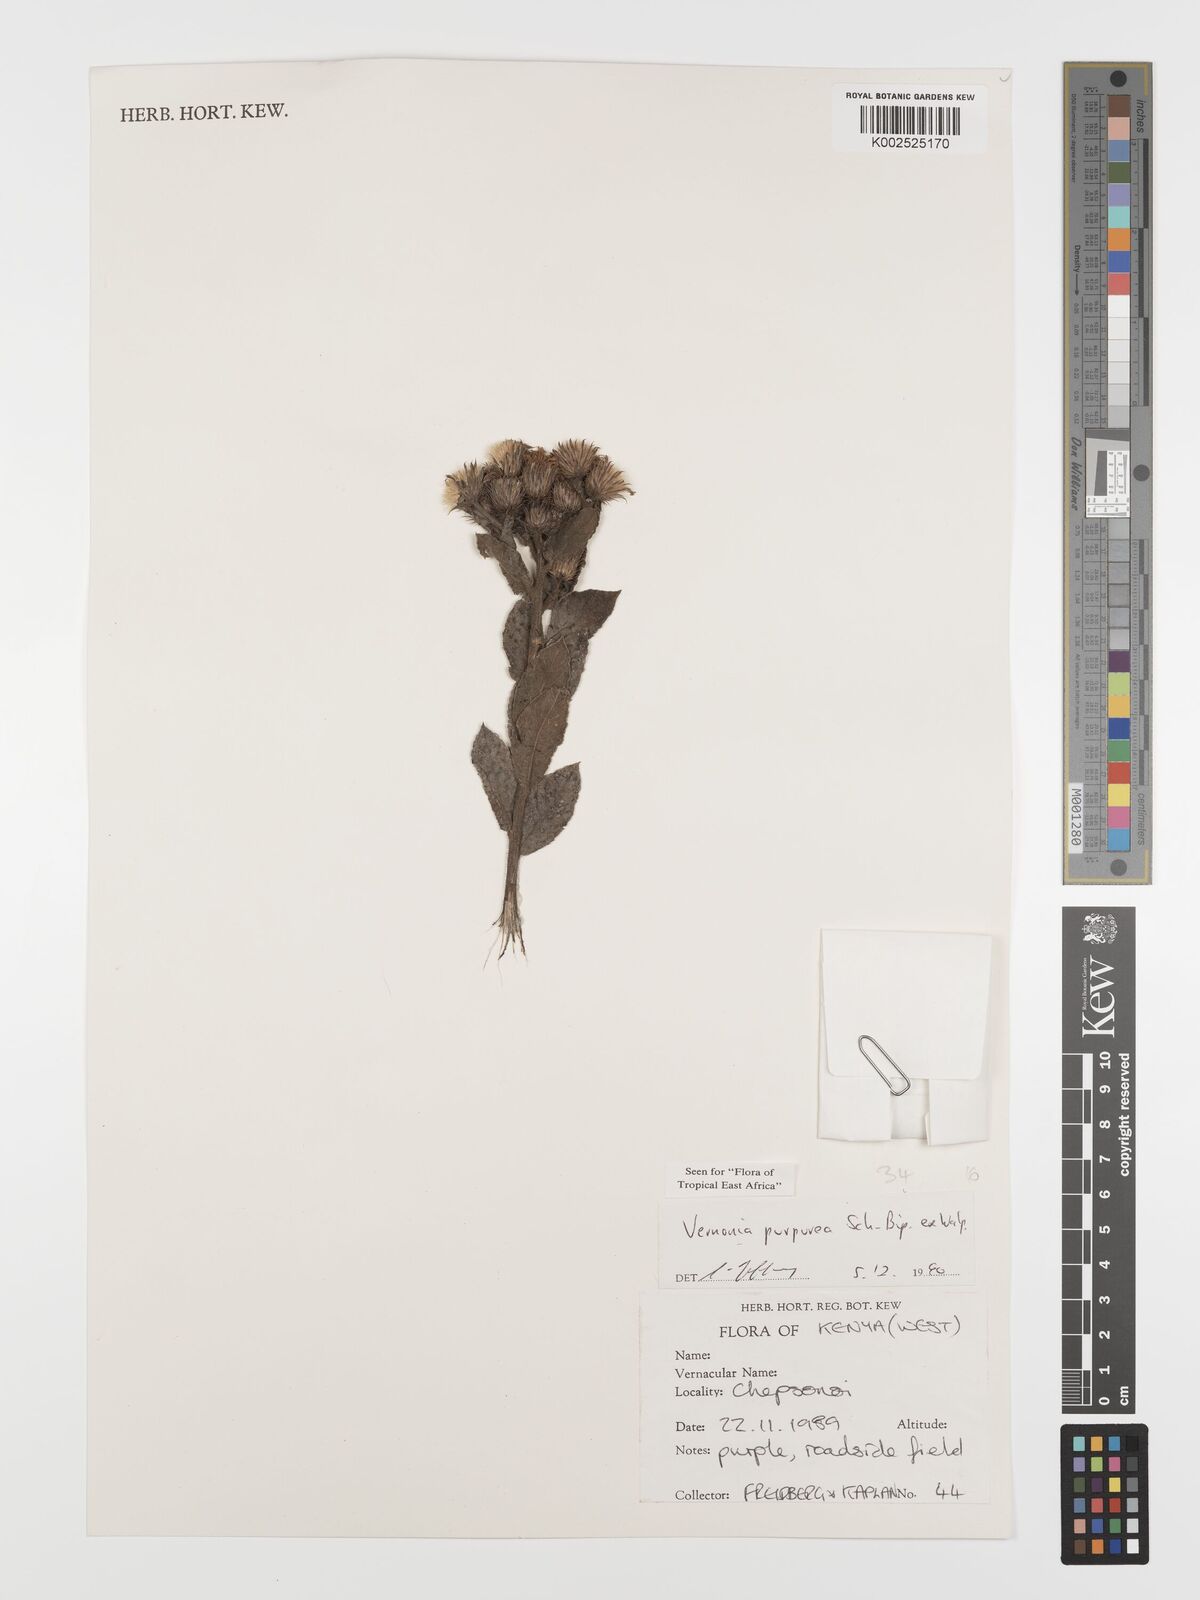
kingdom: Plantae
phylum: Tracheophyta
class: Magnoliopsida
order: Asterales
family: Asteraceae
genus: Nothovernonia
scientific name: Nothovernonia purpurea
